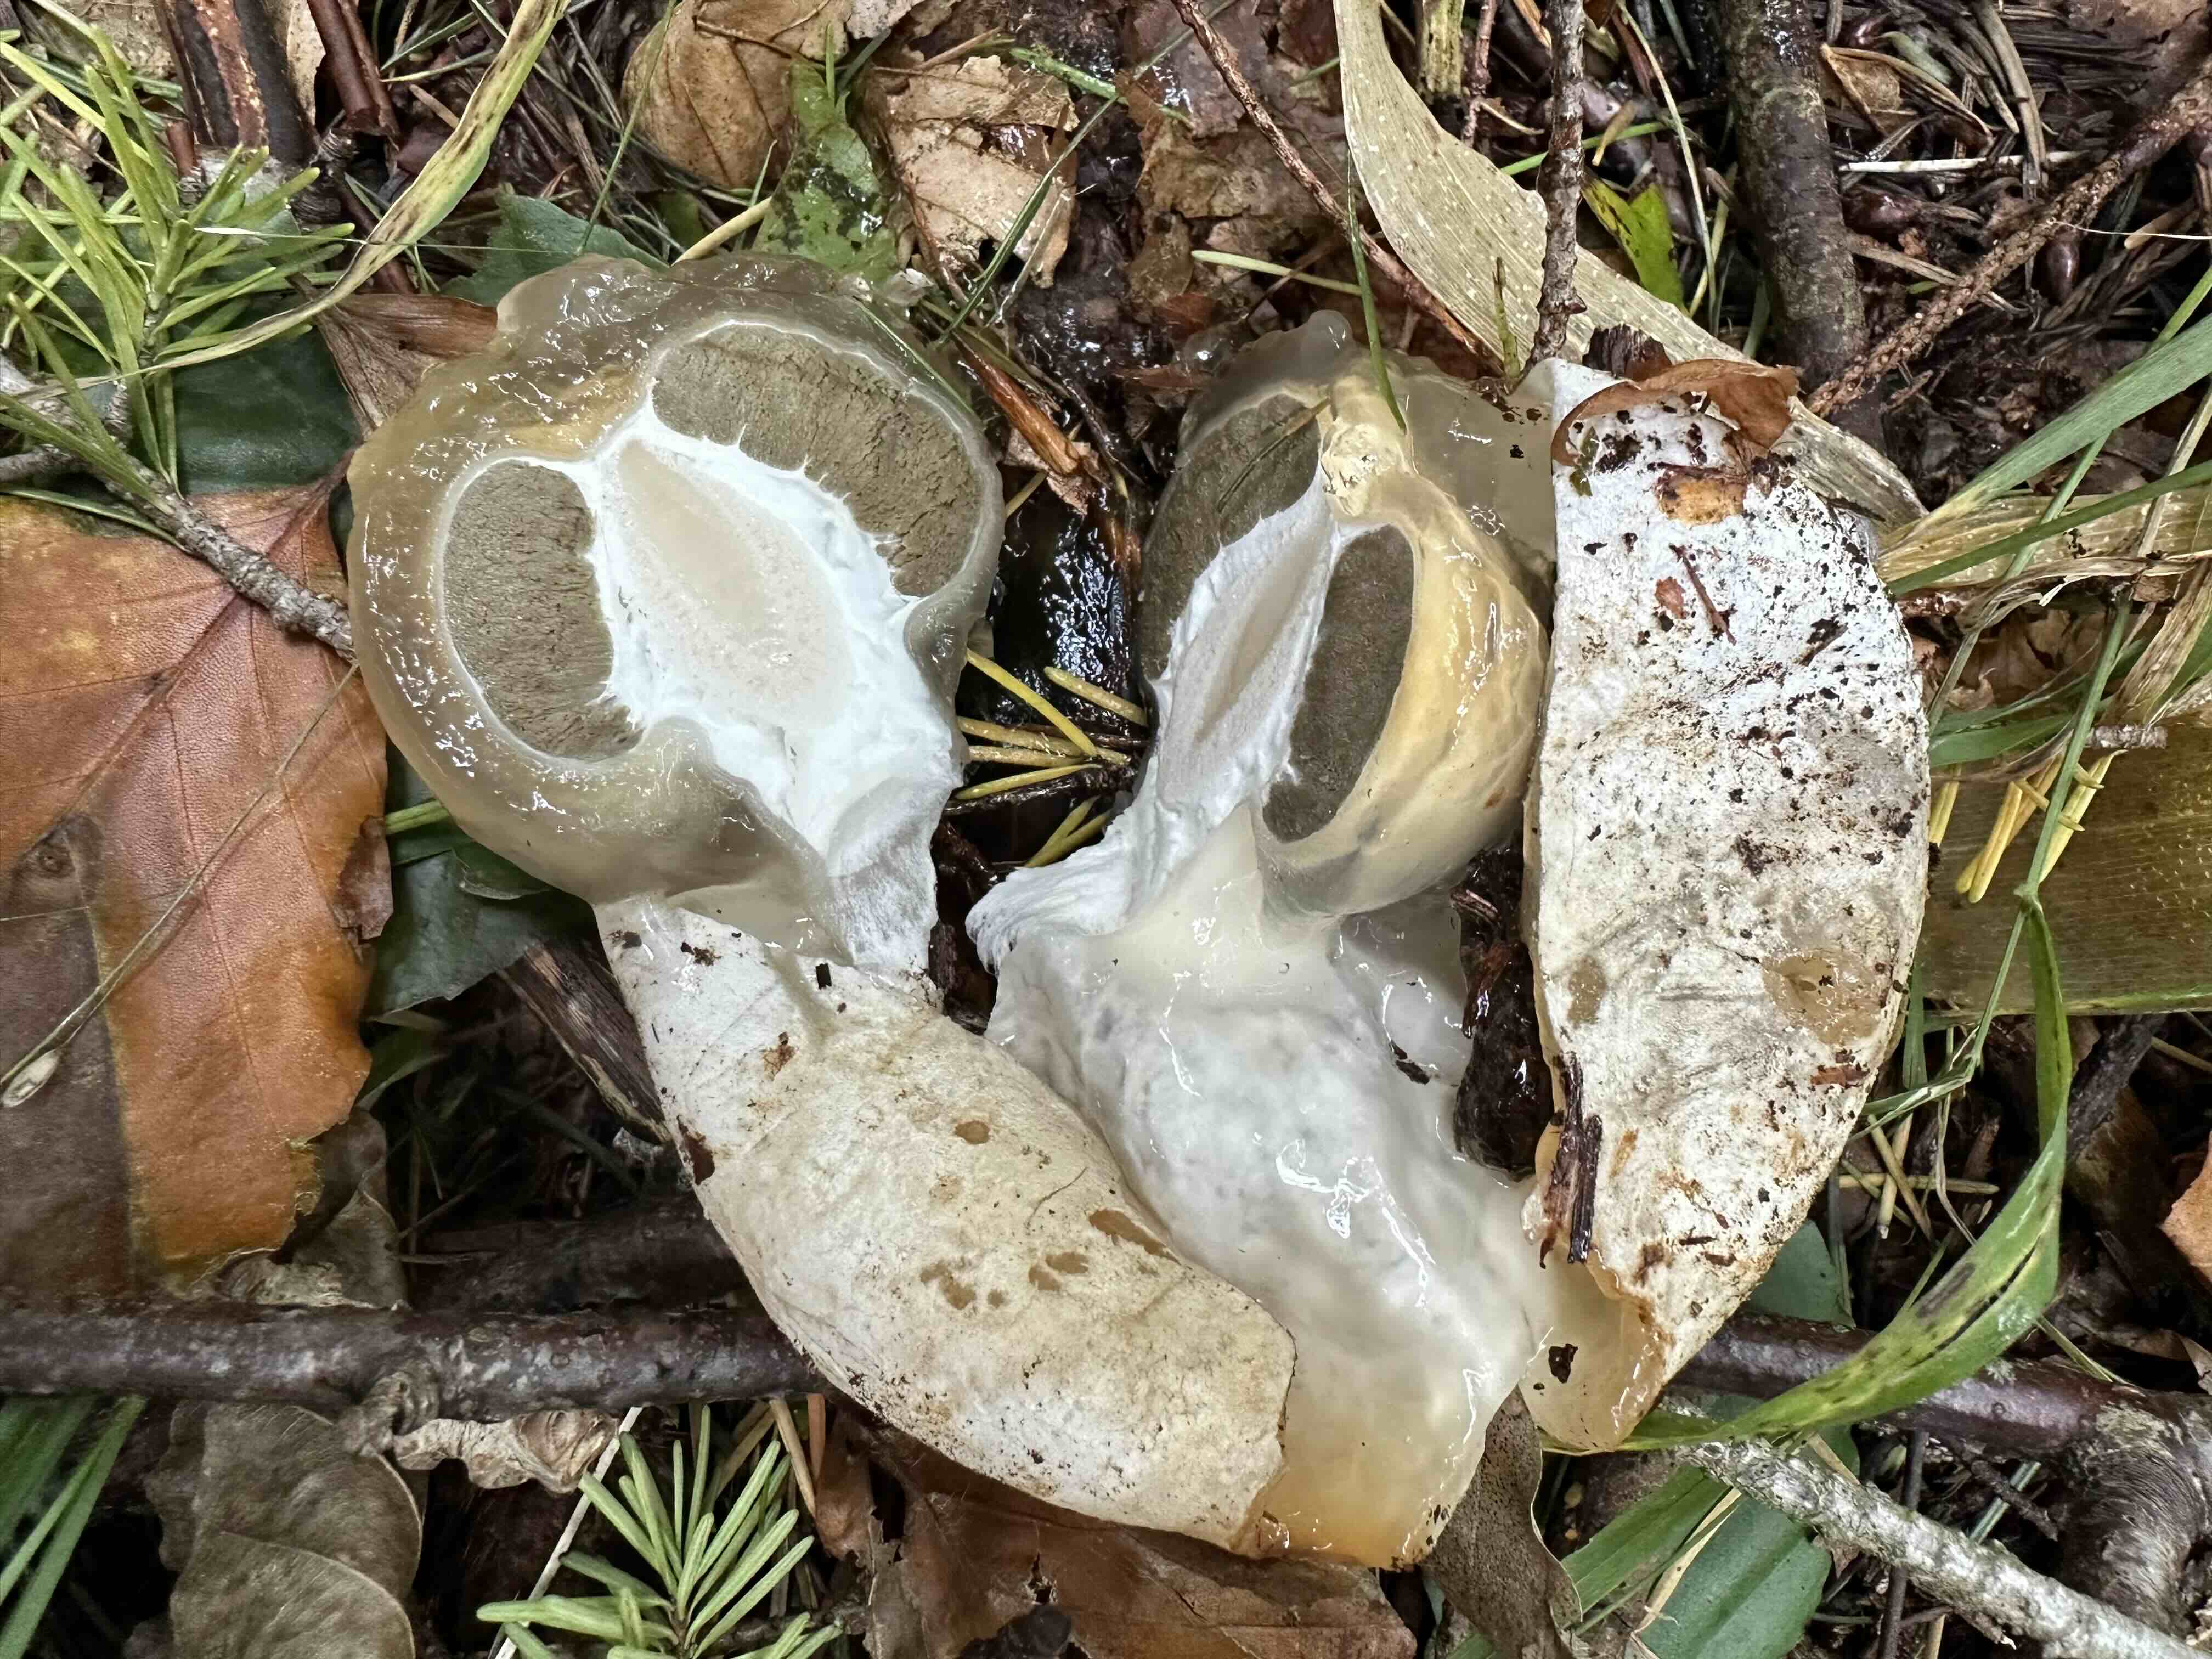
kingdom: Fungi
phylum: Basidiomycota
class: Agaricomycetes
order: Phallales
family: Phallaceae
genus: Phallus
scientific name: Phallus impudicus
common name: almindelig stinksvamp
